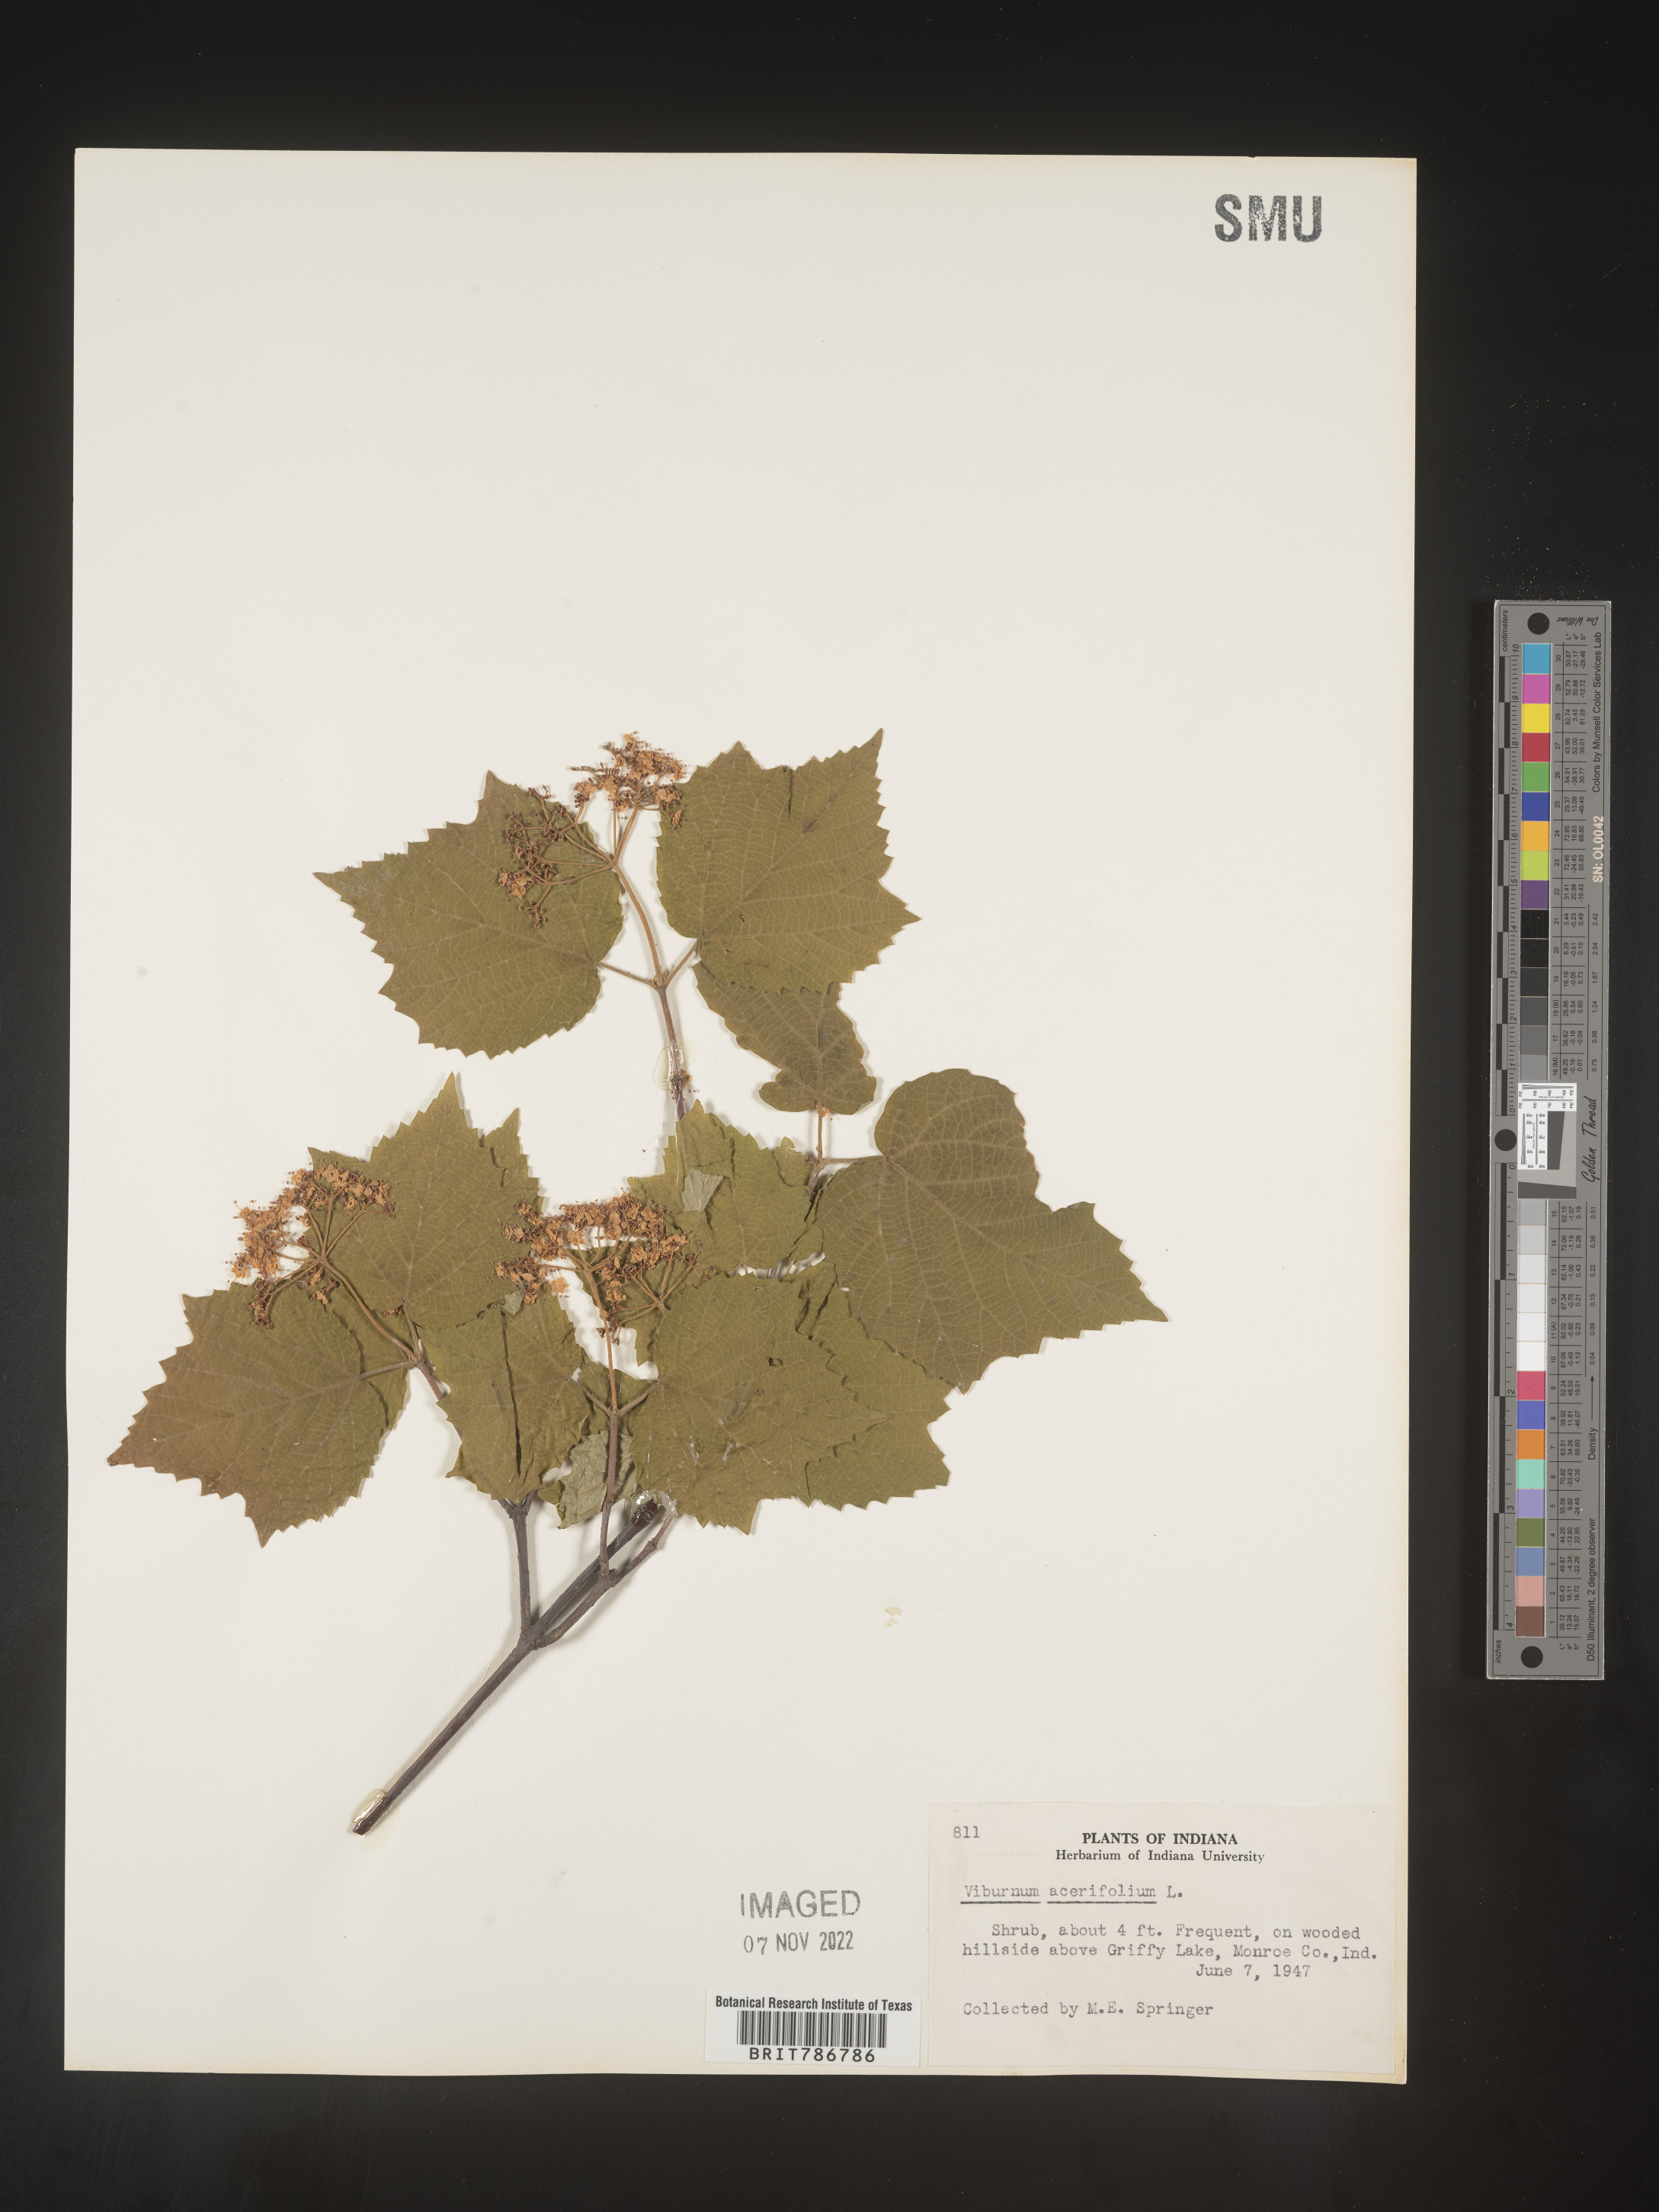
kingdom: Plantae
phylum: Tracheophyta
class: Magnoliopsida
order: Dipsacales
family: Viburnaceae
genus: Viburnum
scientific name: Viburnum acerifolium
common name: Dockmackie
